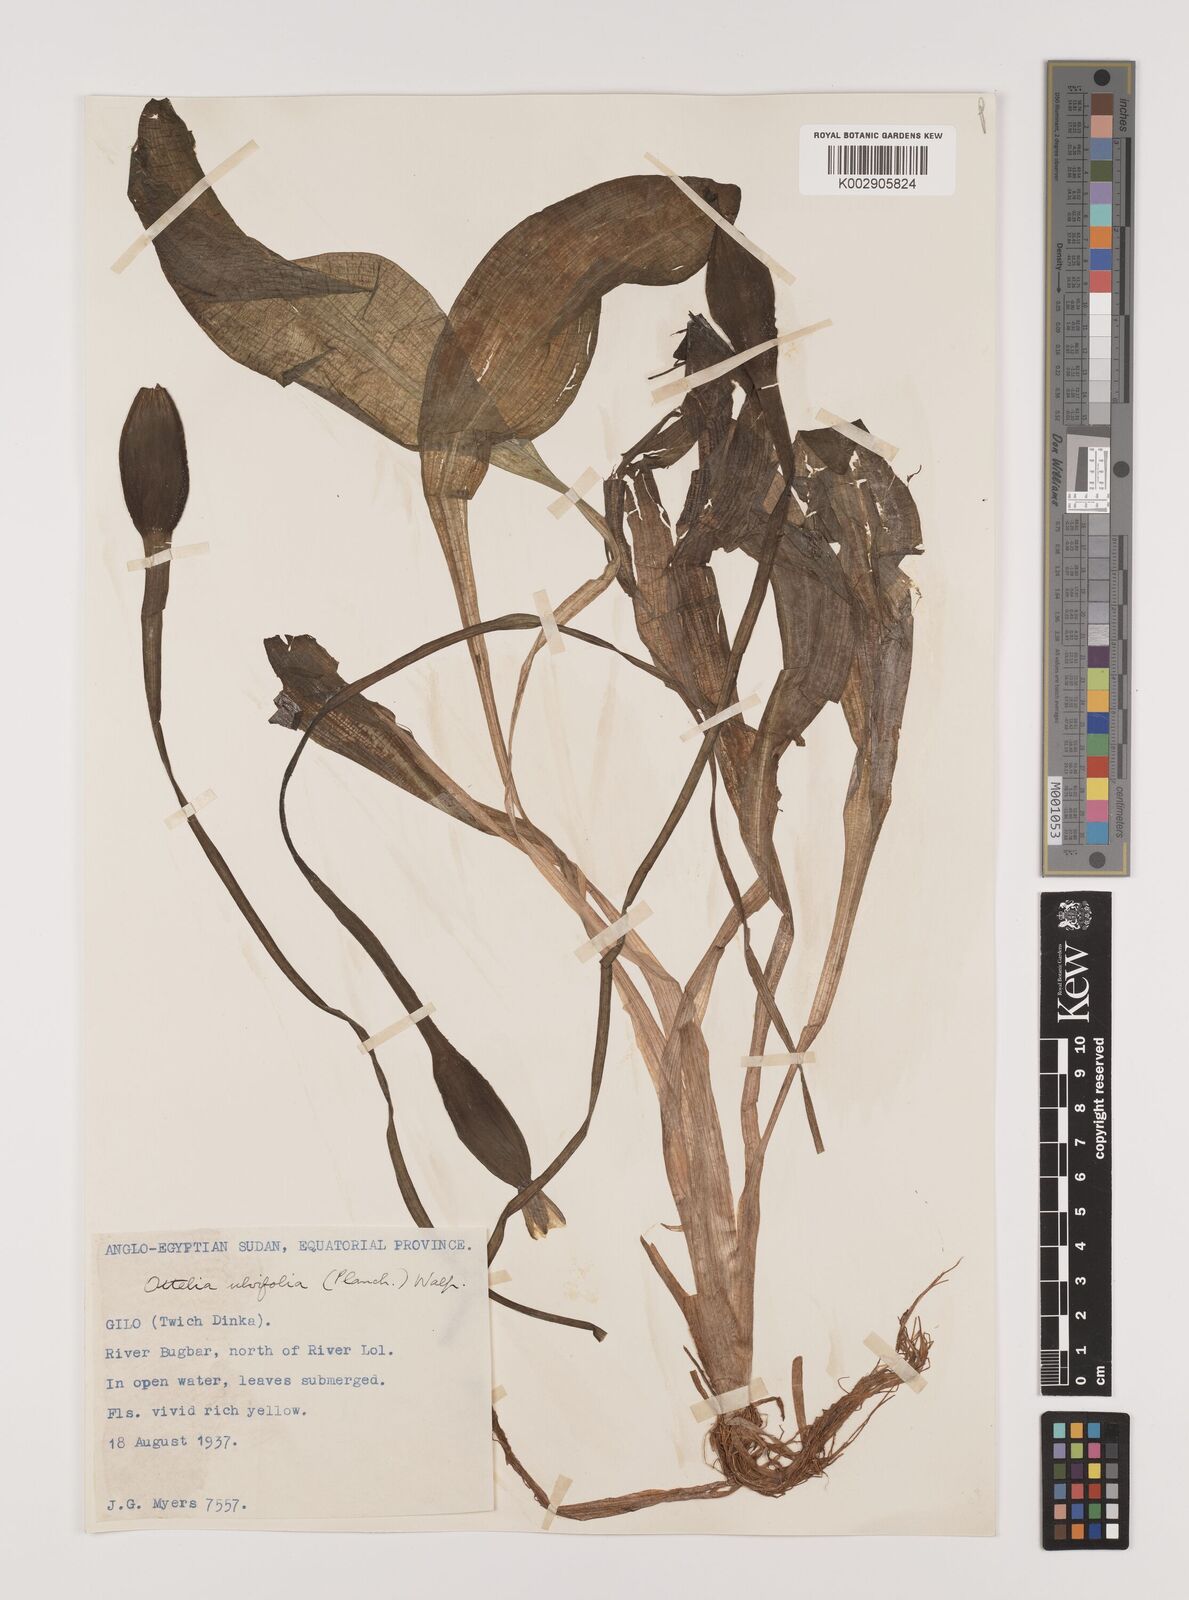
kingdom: Plantae
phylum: Tracheophyta
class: Liliopsida
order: Alismatales
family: Hydrocharitaceae
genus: Ottelia
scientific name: Ottelia ulvifolia
